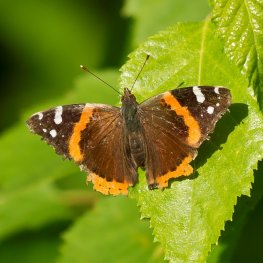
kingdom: Animalia
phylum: Arthropoda
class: Insecta
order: Lepidoptera
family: Nymphalidae
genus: Vanessa
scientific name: Vanessa atalanta
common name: Red Admiral
